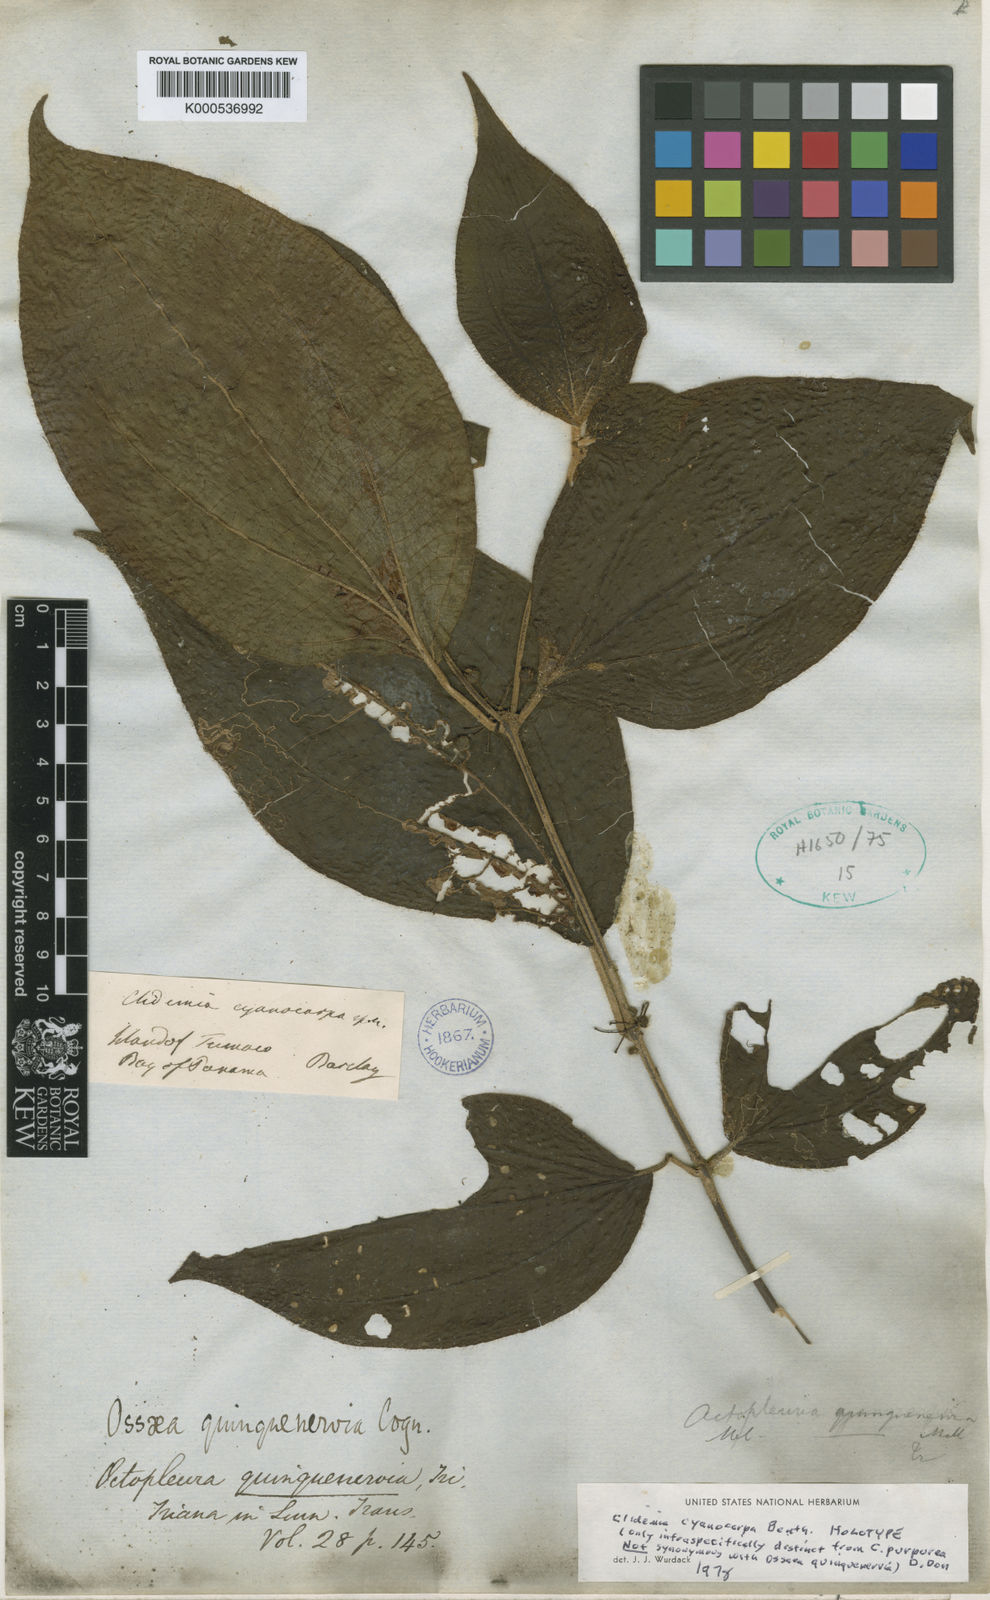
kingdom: Plantae
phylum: Tracheophyta
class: Magnoliopsida
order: Myrtales
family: Melastomataceae
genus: Miconia
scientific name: Miconia atropurpurea
